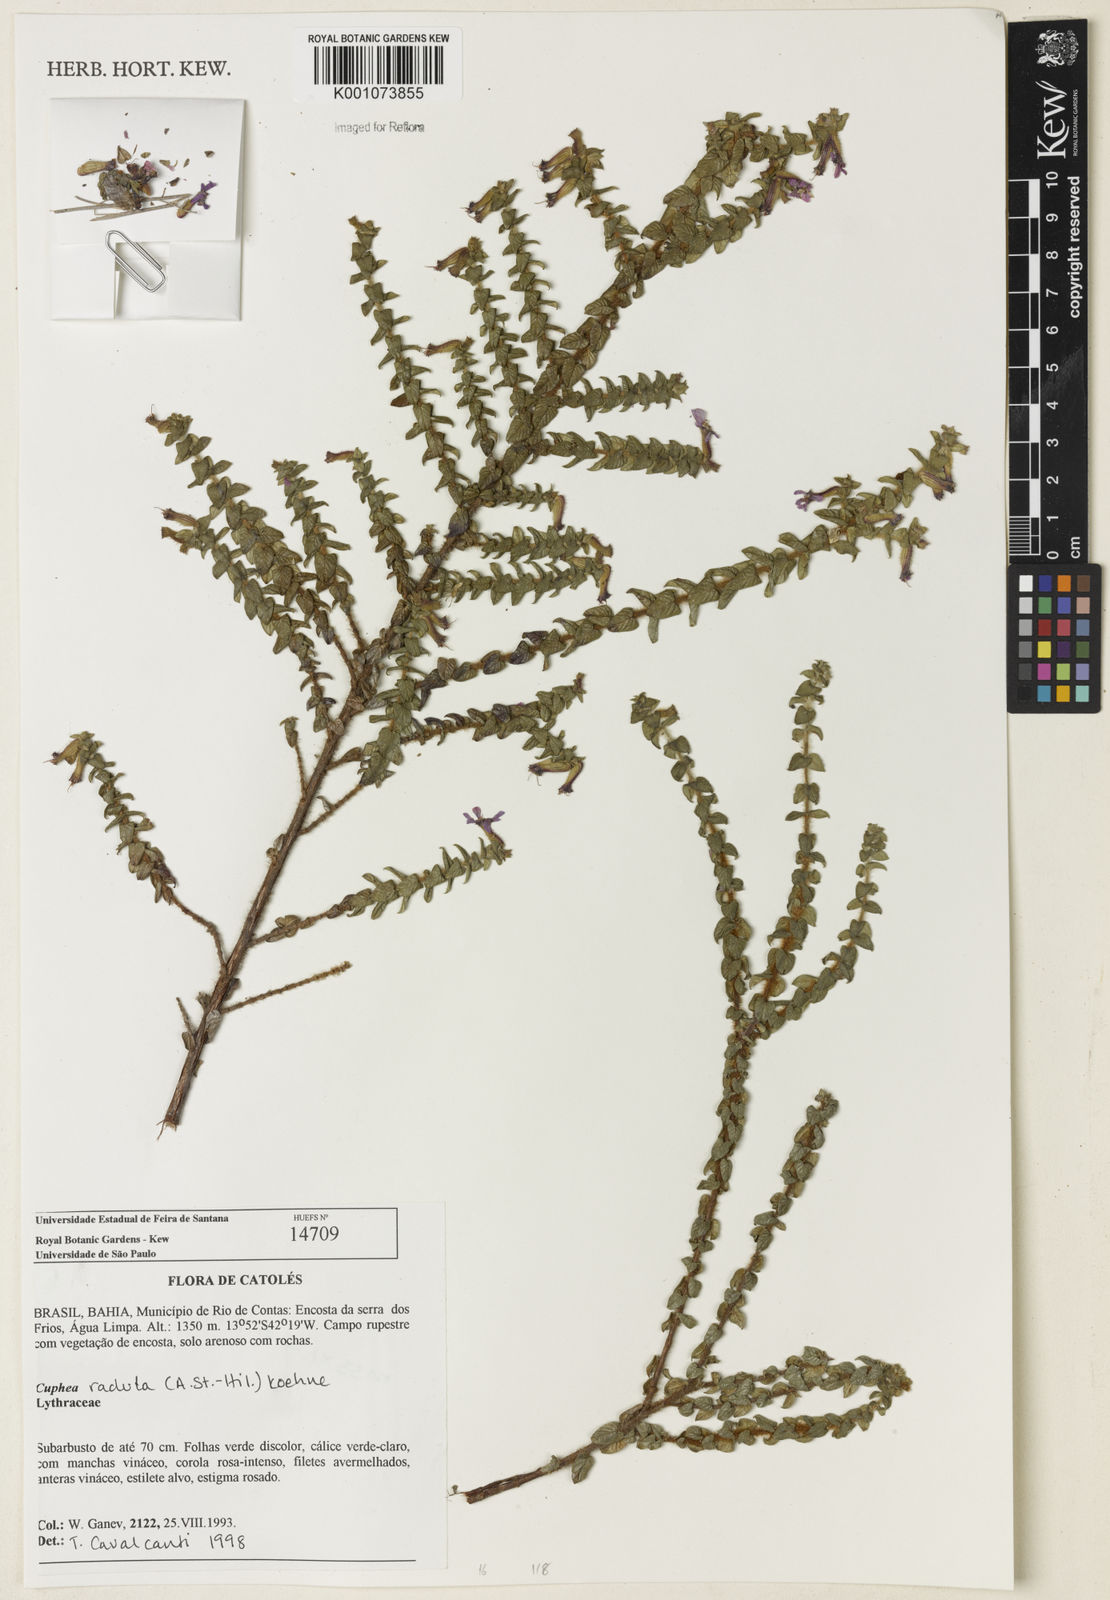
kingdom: Plantae
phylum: Tracheophyta
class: Magnoliopsida
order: Myrtales
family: Lythraceae
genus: Cuphea
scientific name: Cuphea antisyphilitica
